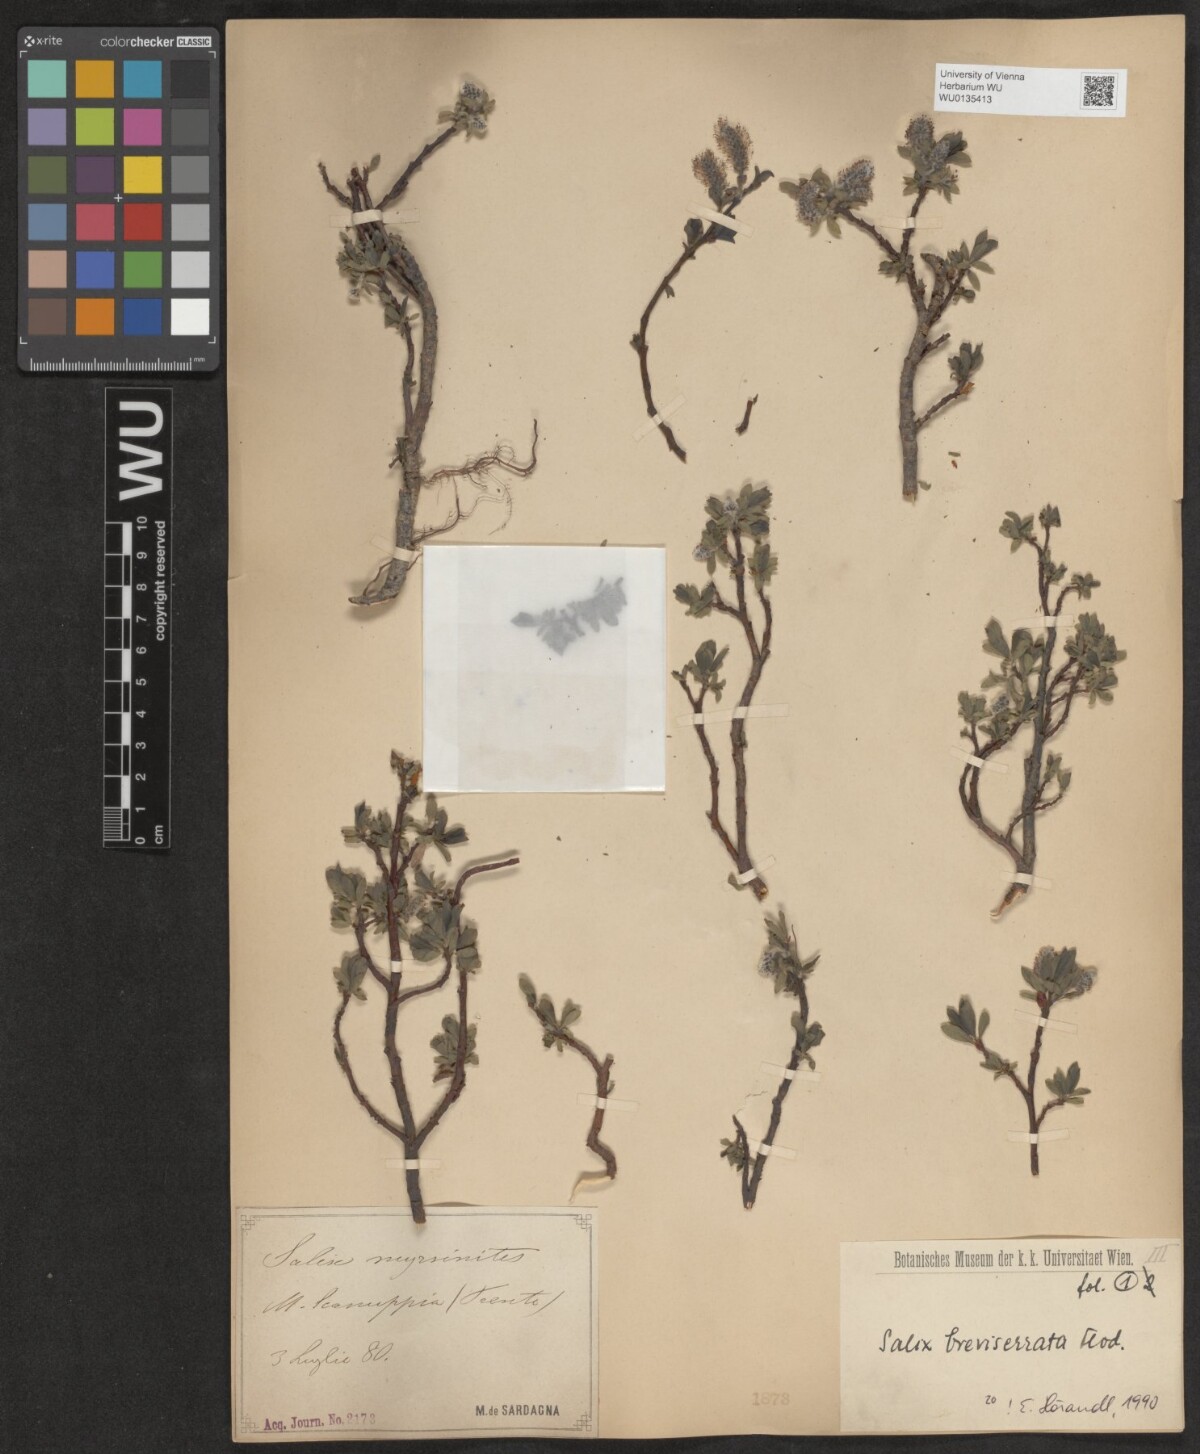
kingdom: Plantae
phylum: Tracheophyta
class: Magnoliopsida
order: Malpighiales
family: Salicaceae
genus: Salix
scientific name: Salix breviserrata
